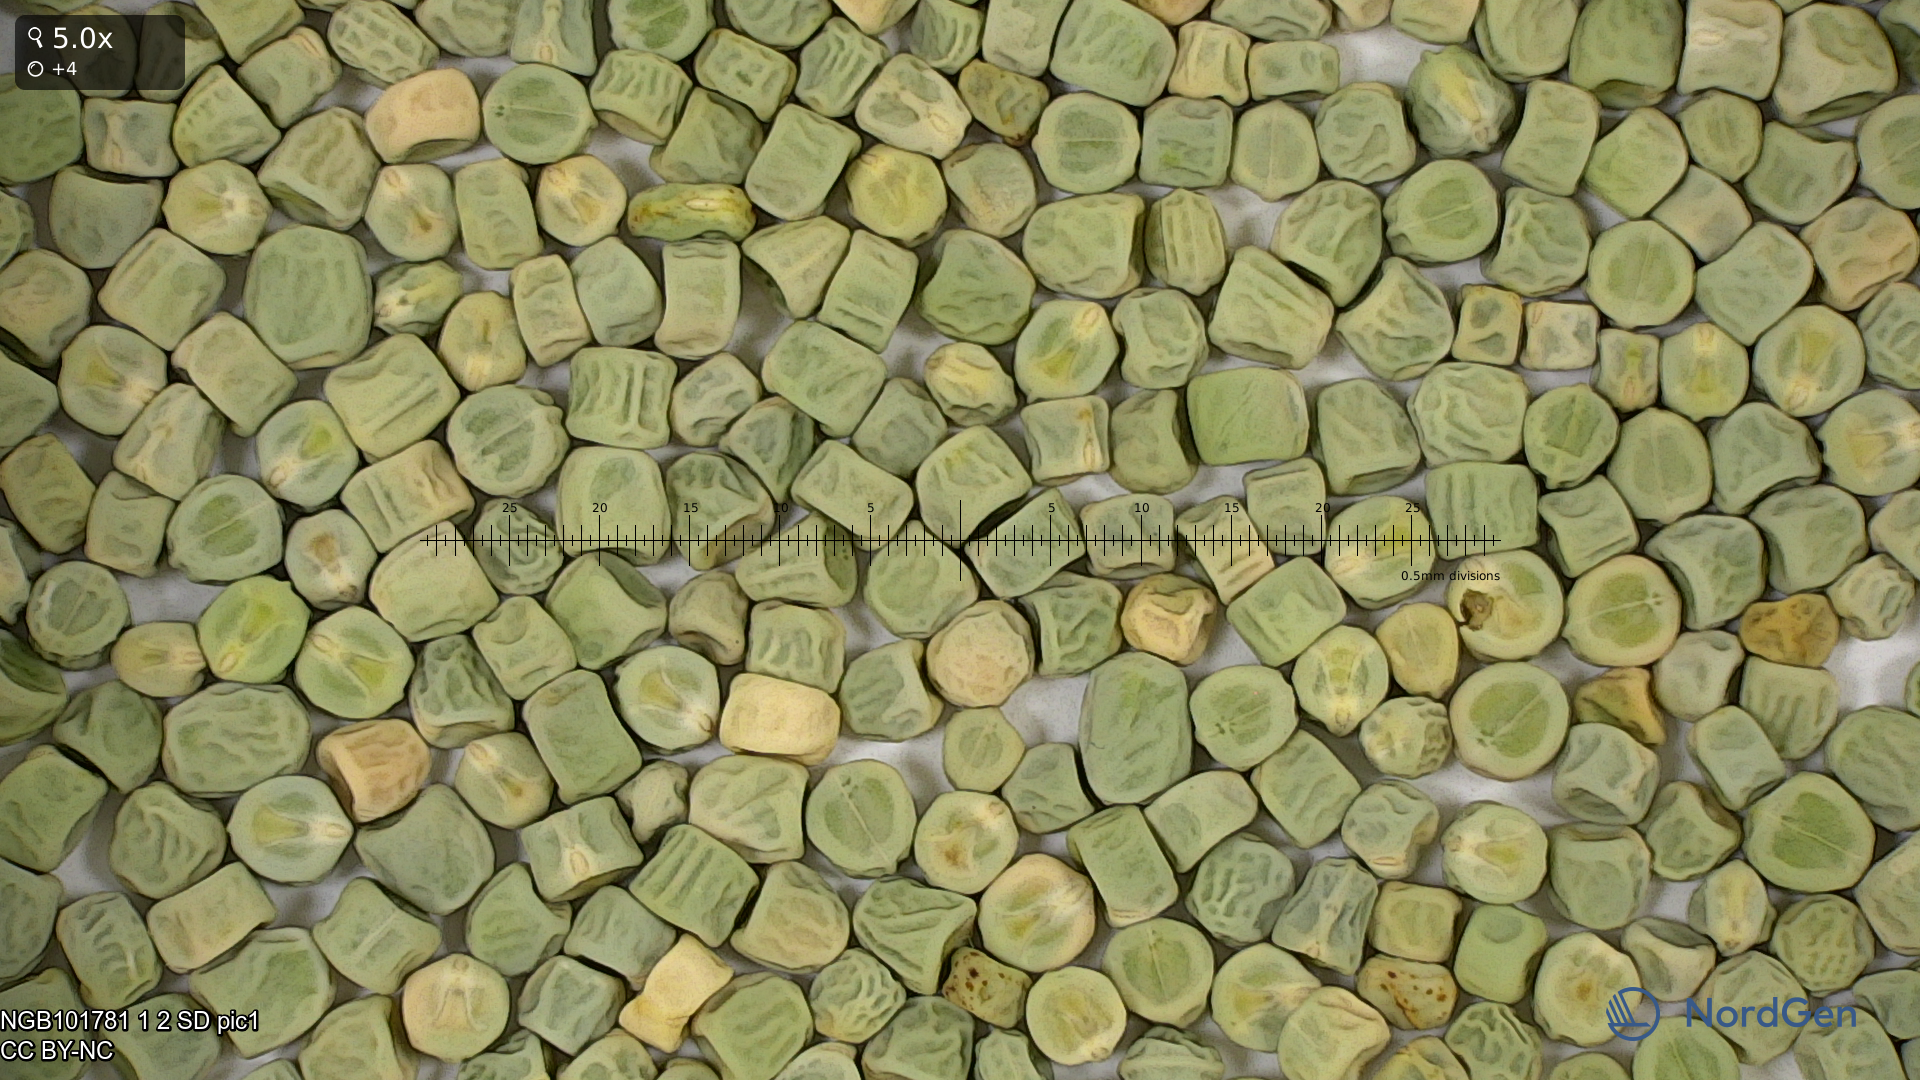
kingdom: Plantae
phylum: Tracheophyta
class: Magnoliopsida
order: Fabales
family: Fabaceae
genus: Lathyrus
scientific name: Lathyrus oleraceus
